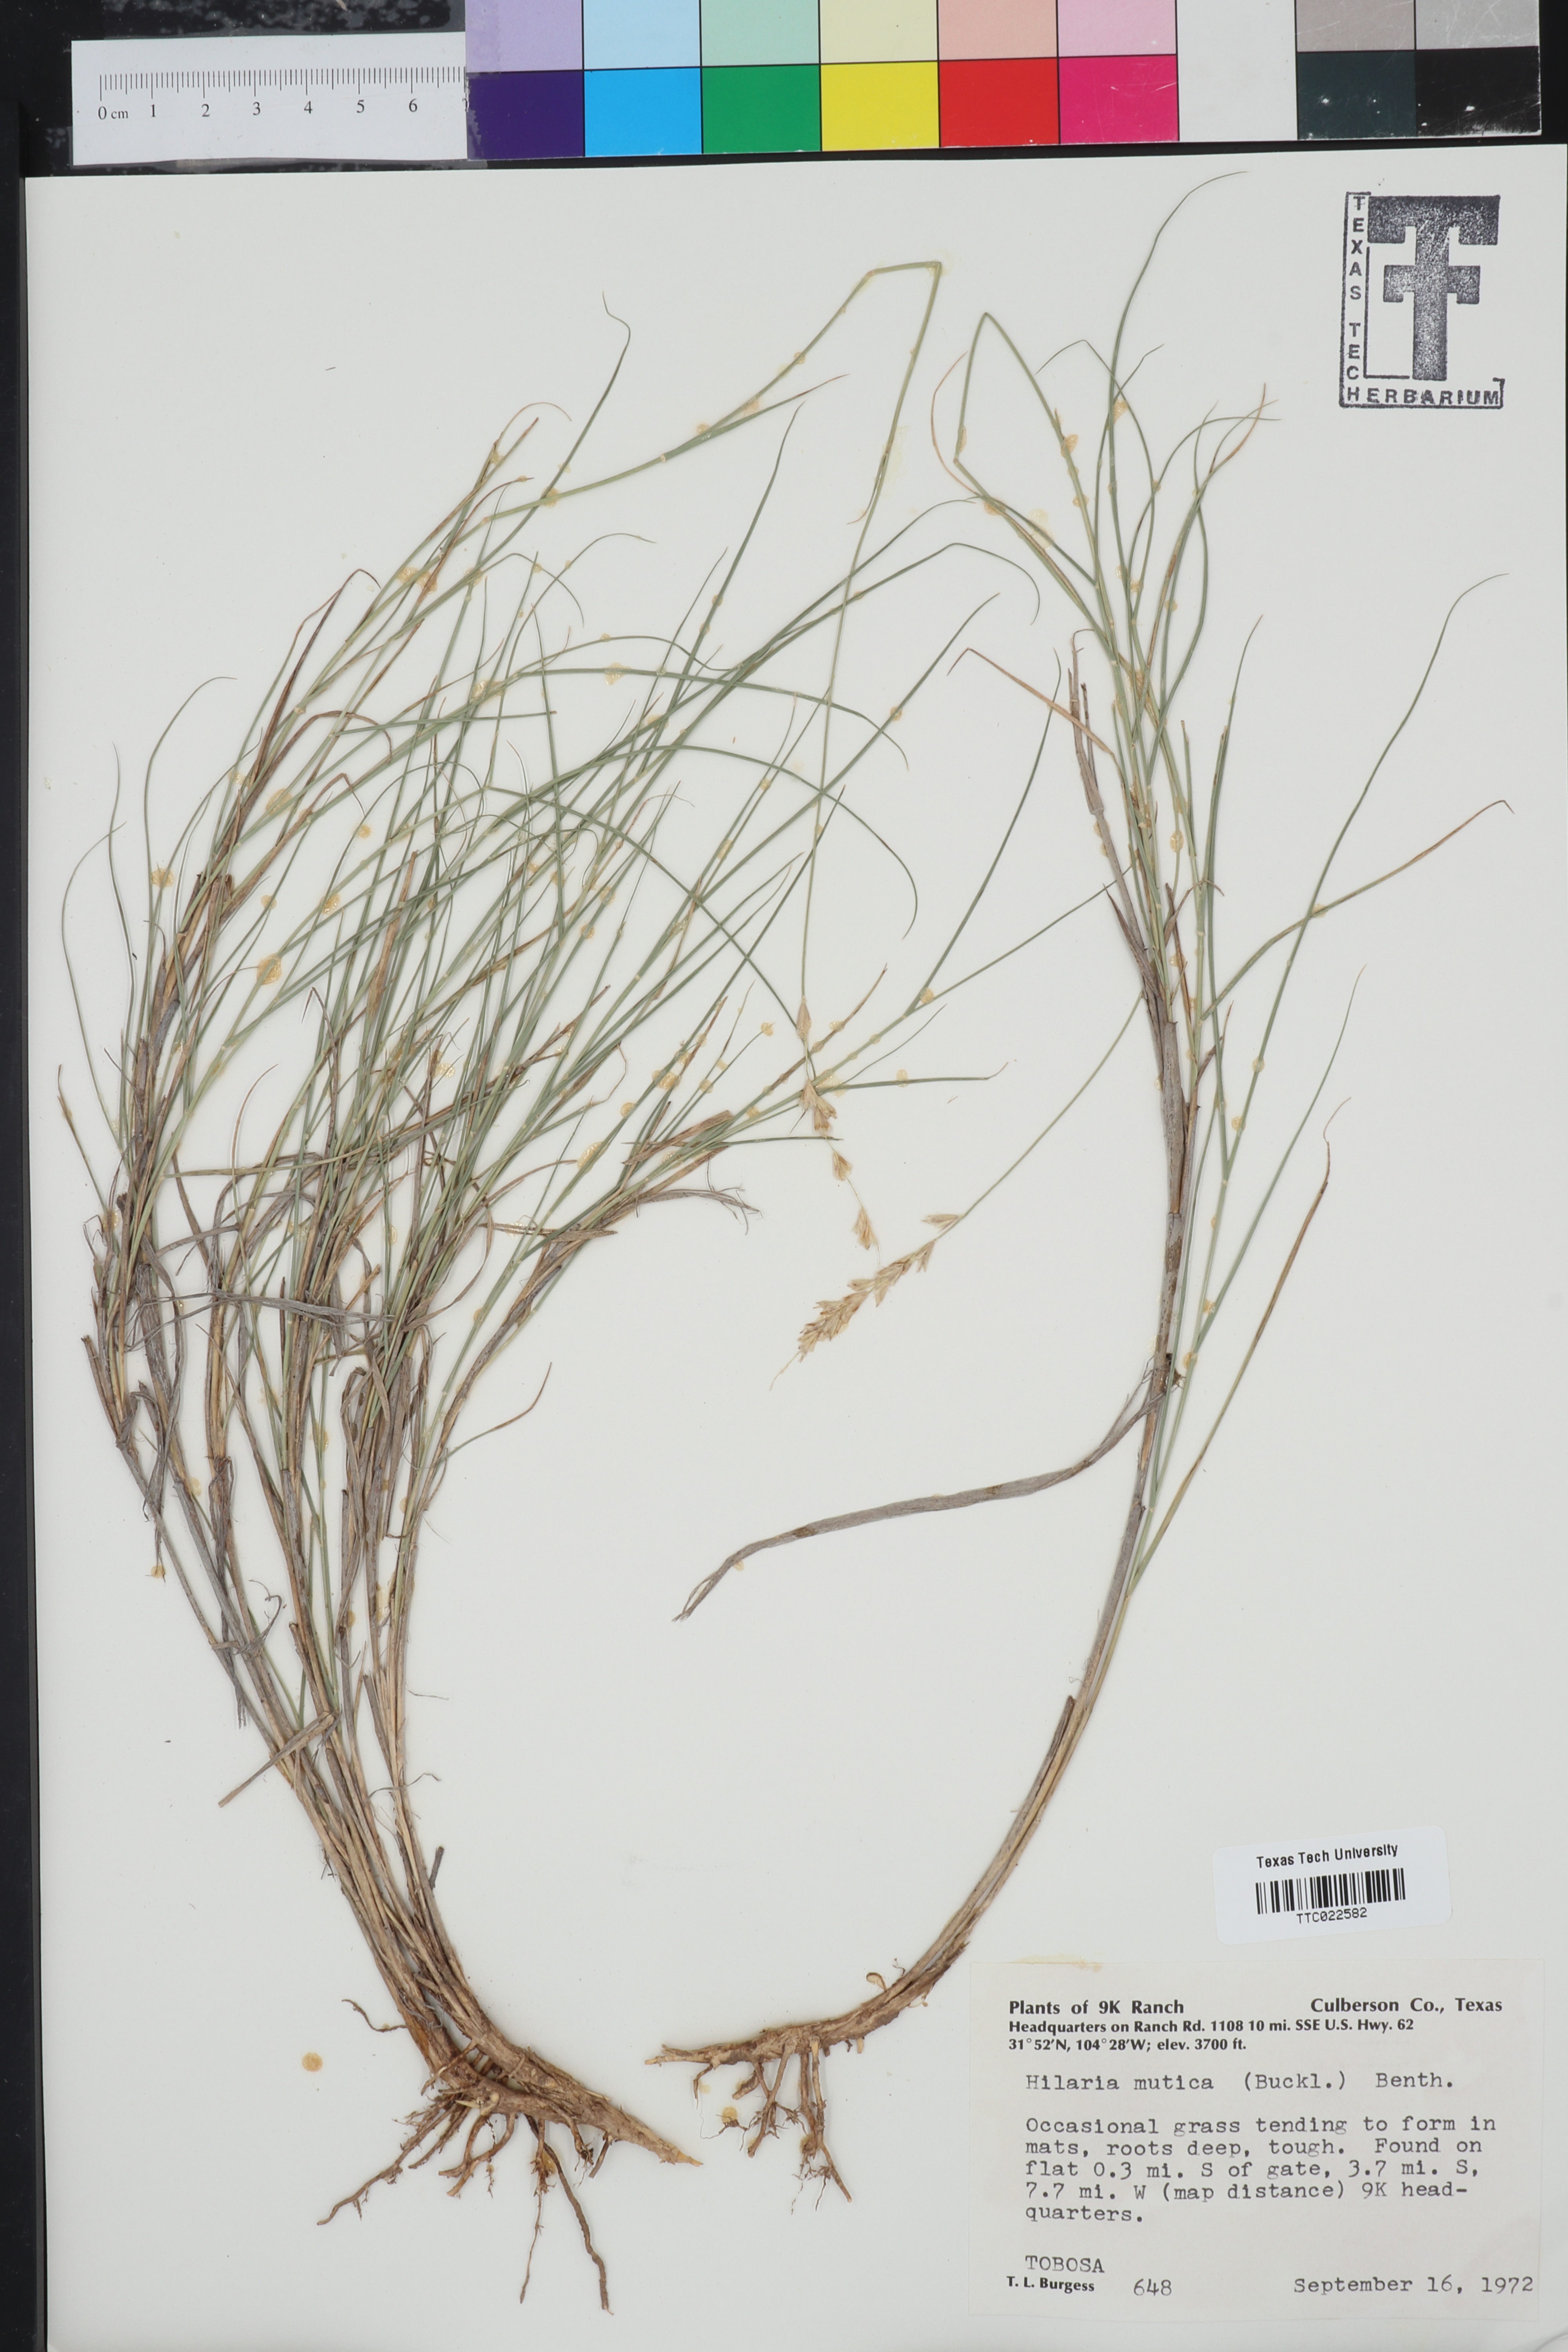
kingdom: Plantae
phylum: Tracheophyta
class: Liliopsida
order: Poales
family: Poaceae
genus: Hilaria
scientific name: Hilaria mutica
